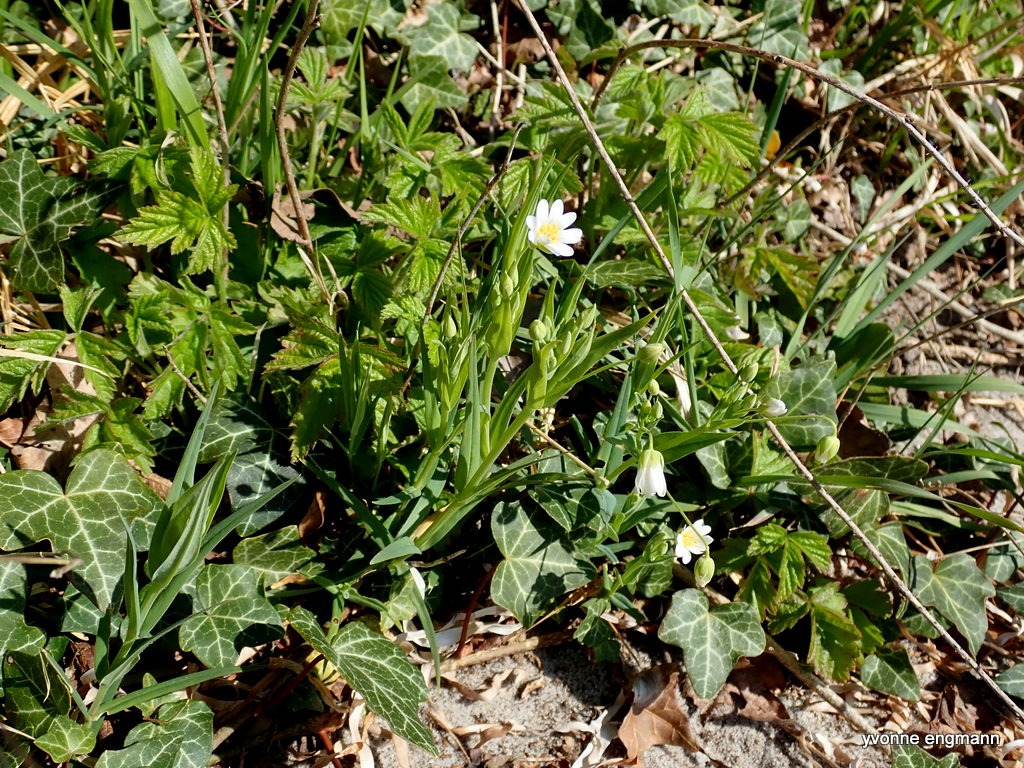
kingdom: Plantae
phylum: Tracheophyta
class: Magnoliopsida
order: Caryophyllales
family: Caryophyllaceae
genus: Rabelera
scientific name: Rabelera holostea
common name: Stor fladstjerne
